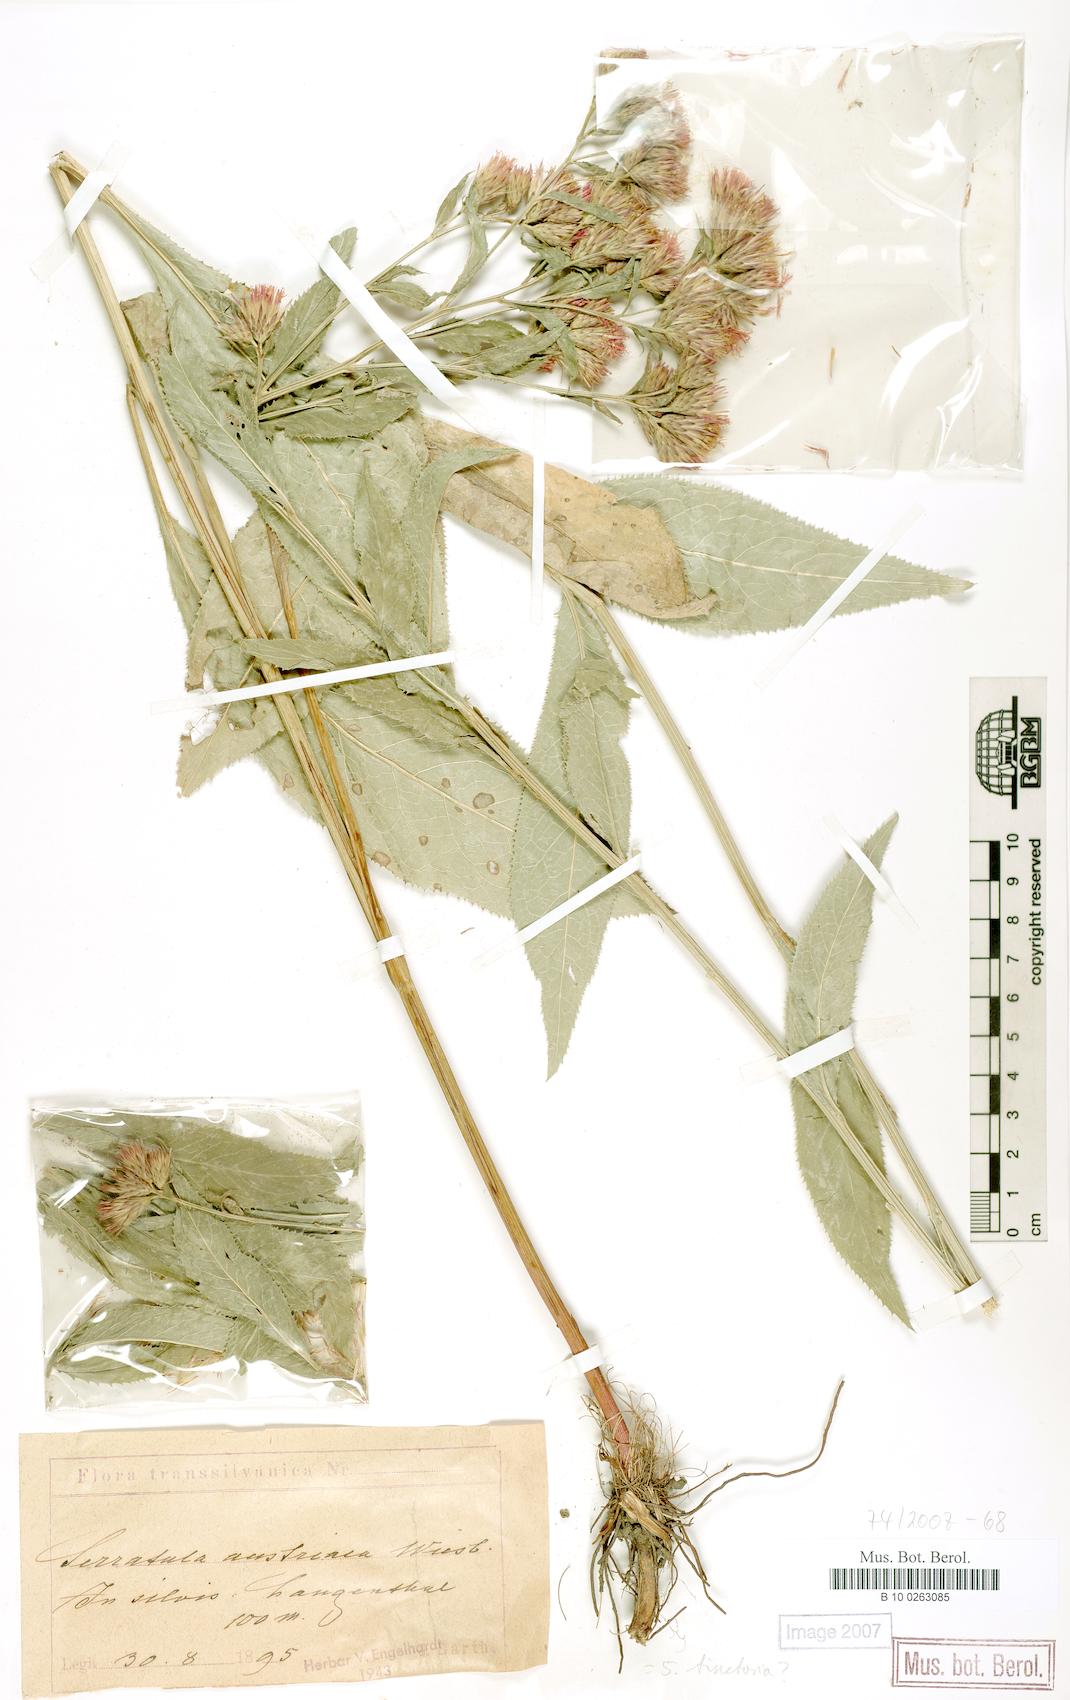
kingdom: Plantae
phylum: Tracheophyta
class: Magnoliopsida
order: Asterales
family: Asteraceae
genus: Serratula
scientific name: Serratula tinctoria
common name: Saw-wort
